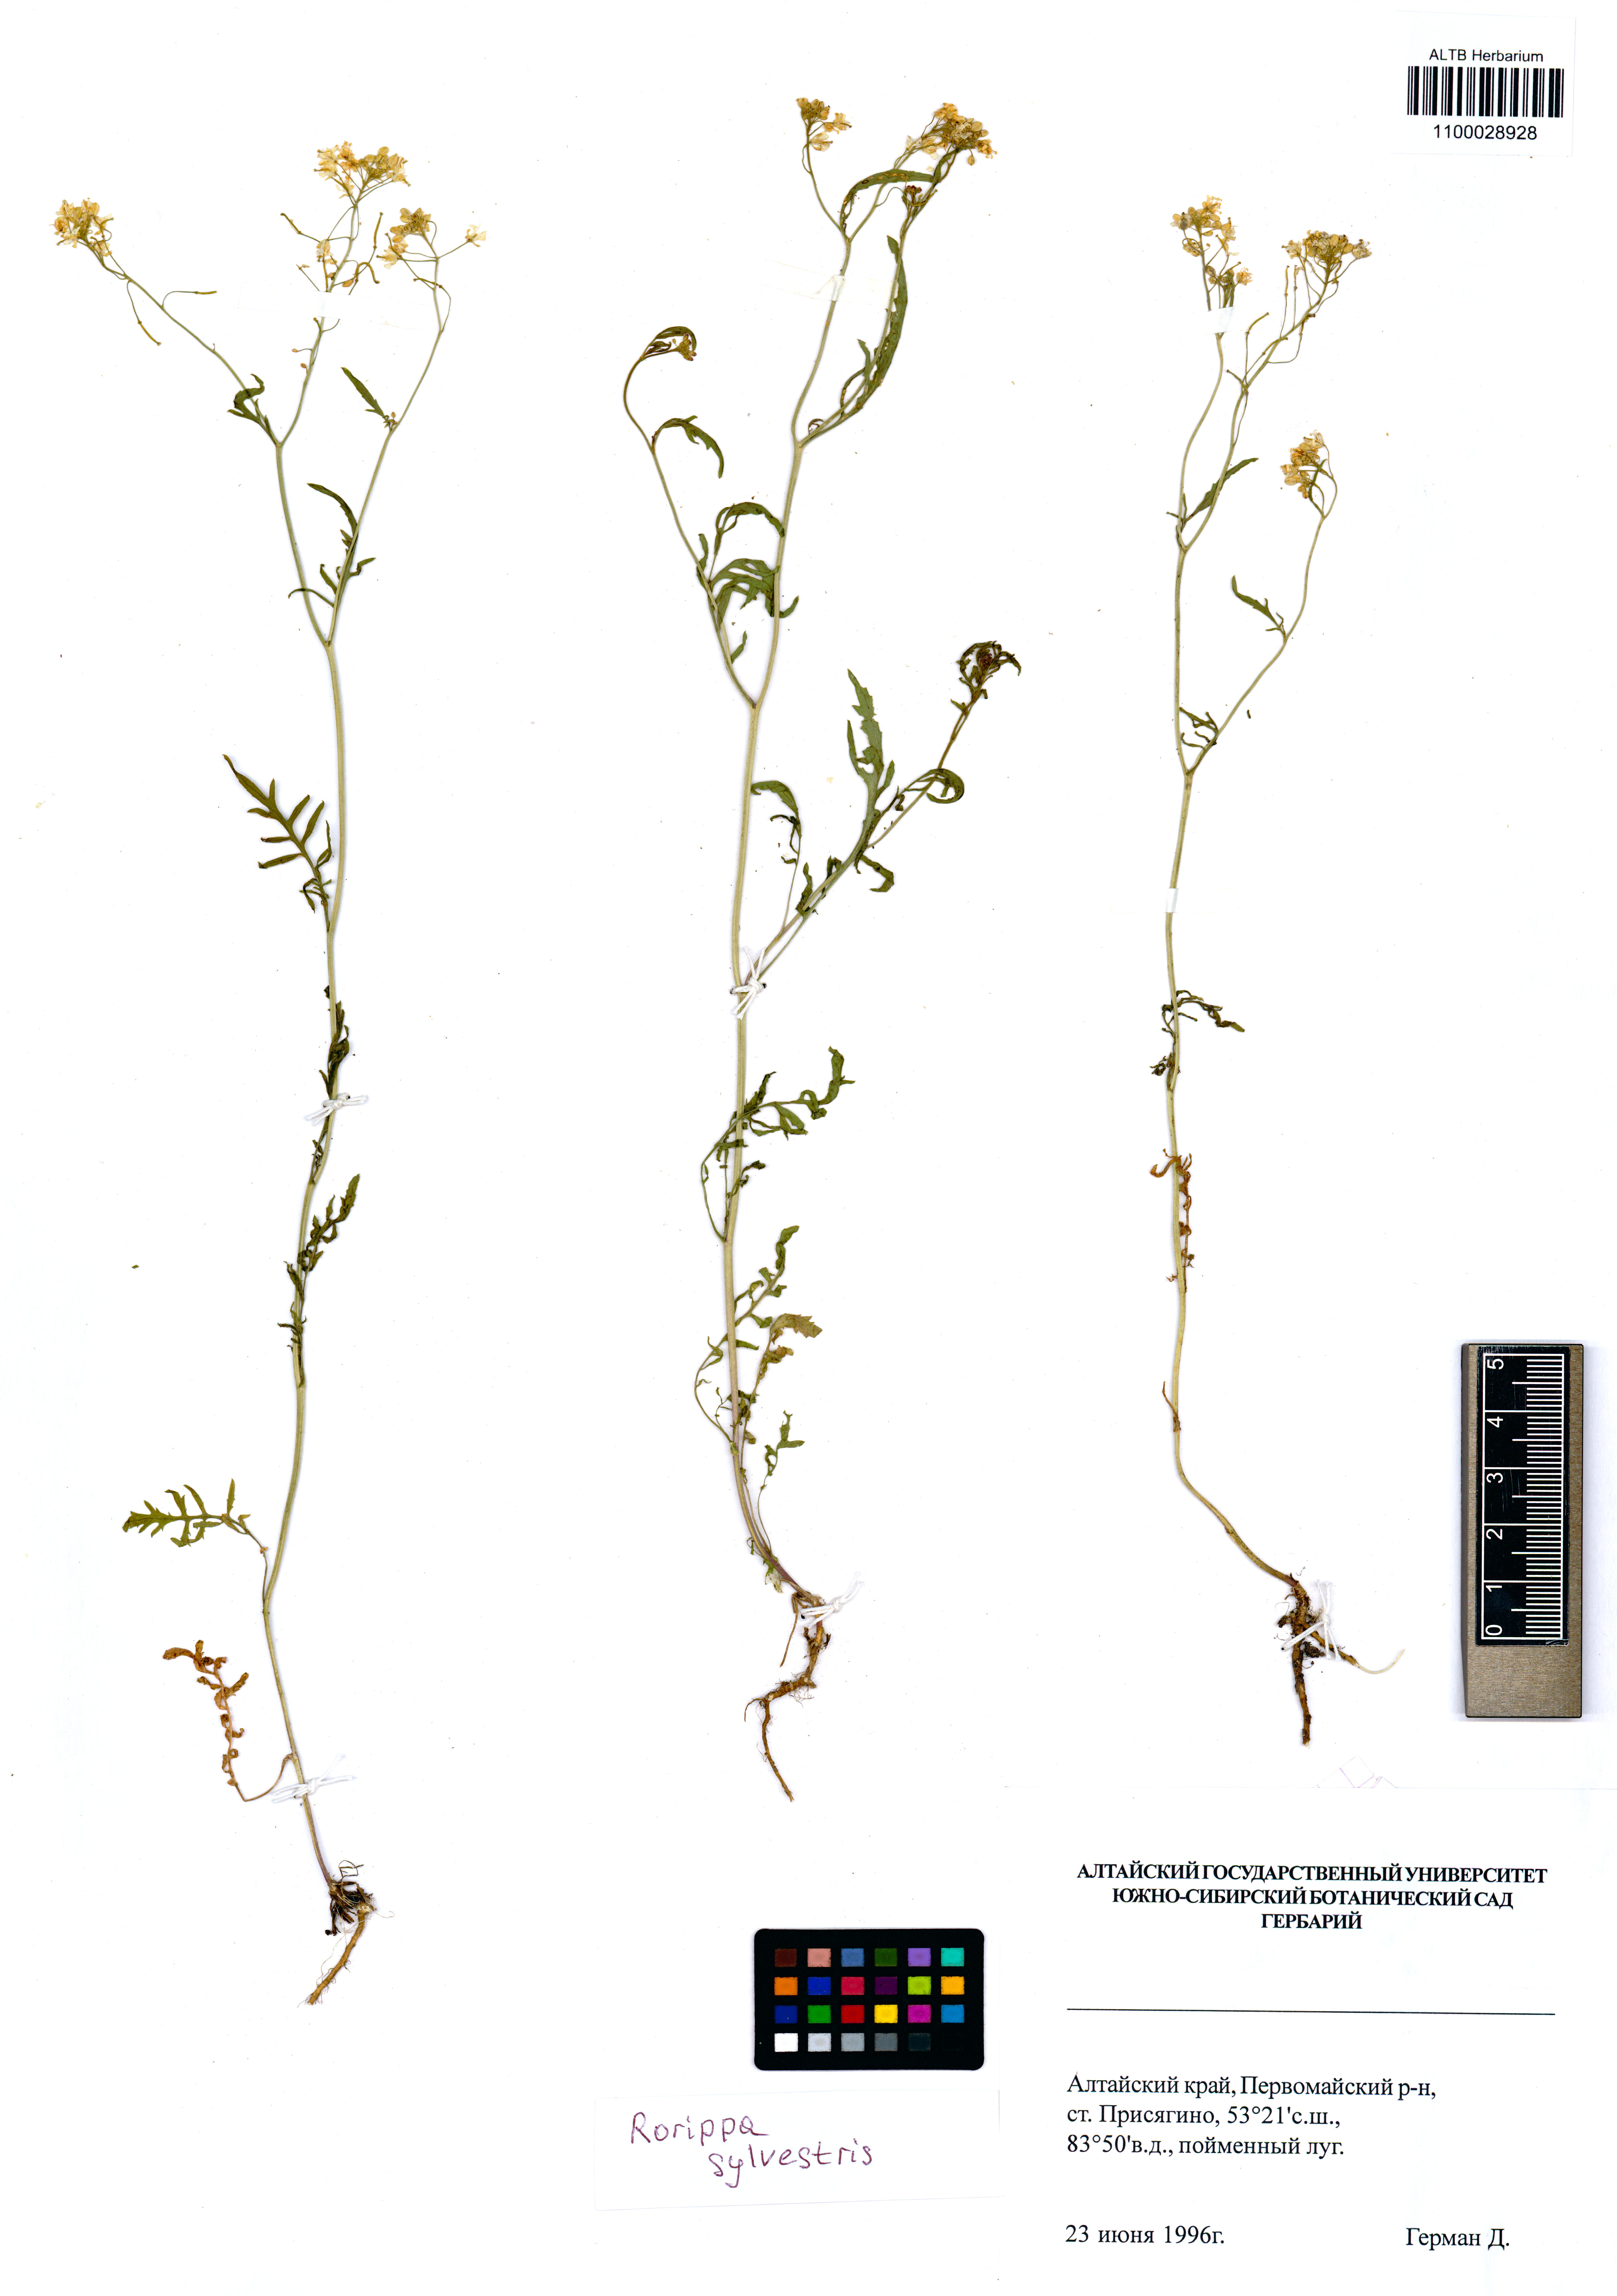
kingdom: Plantae
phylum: Tracheophyta
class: Magnoliopsida
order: Brassicales
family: Brassicaceae
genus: Rorippa
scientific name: Rorippa sylvestris
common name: Creeping yellowcress
